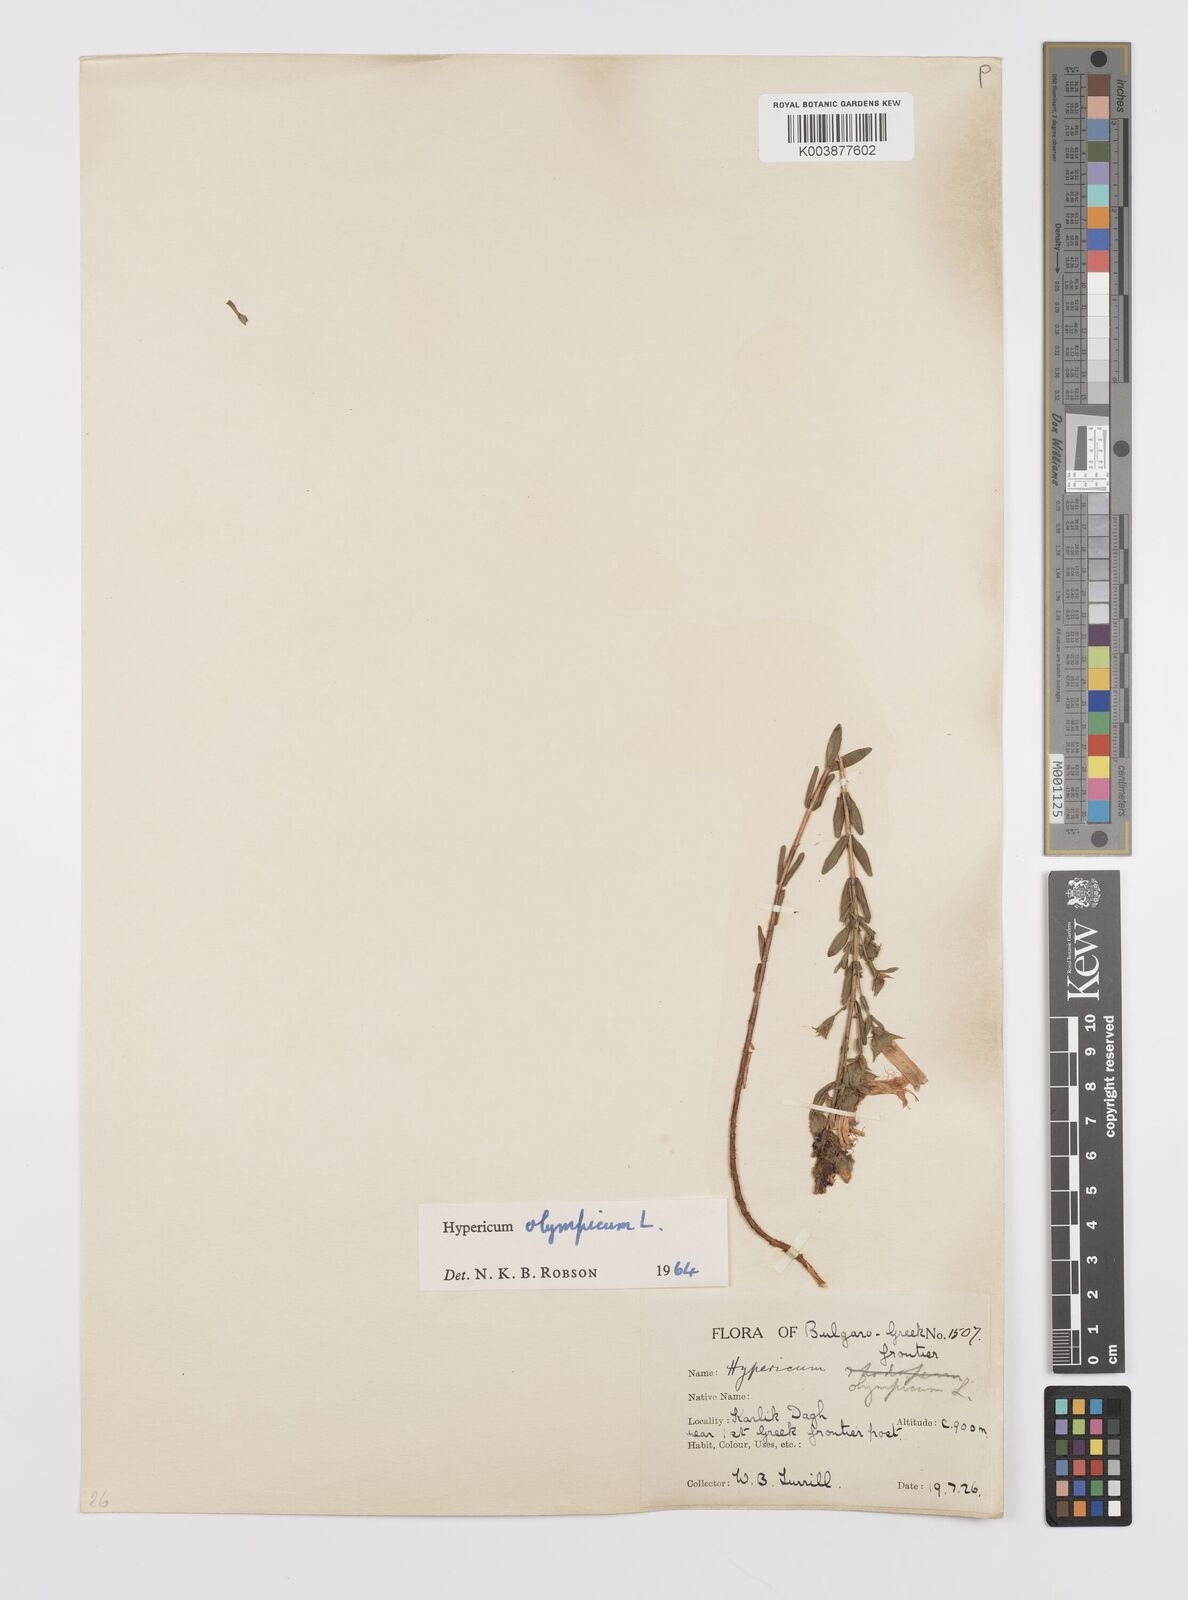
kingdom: Plantae
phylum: Tracheophyta
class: Magnoliopsida
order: Malpighiales
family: Hypericaceae
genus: Hypericum
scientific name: Hypericum olympicum
